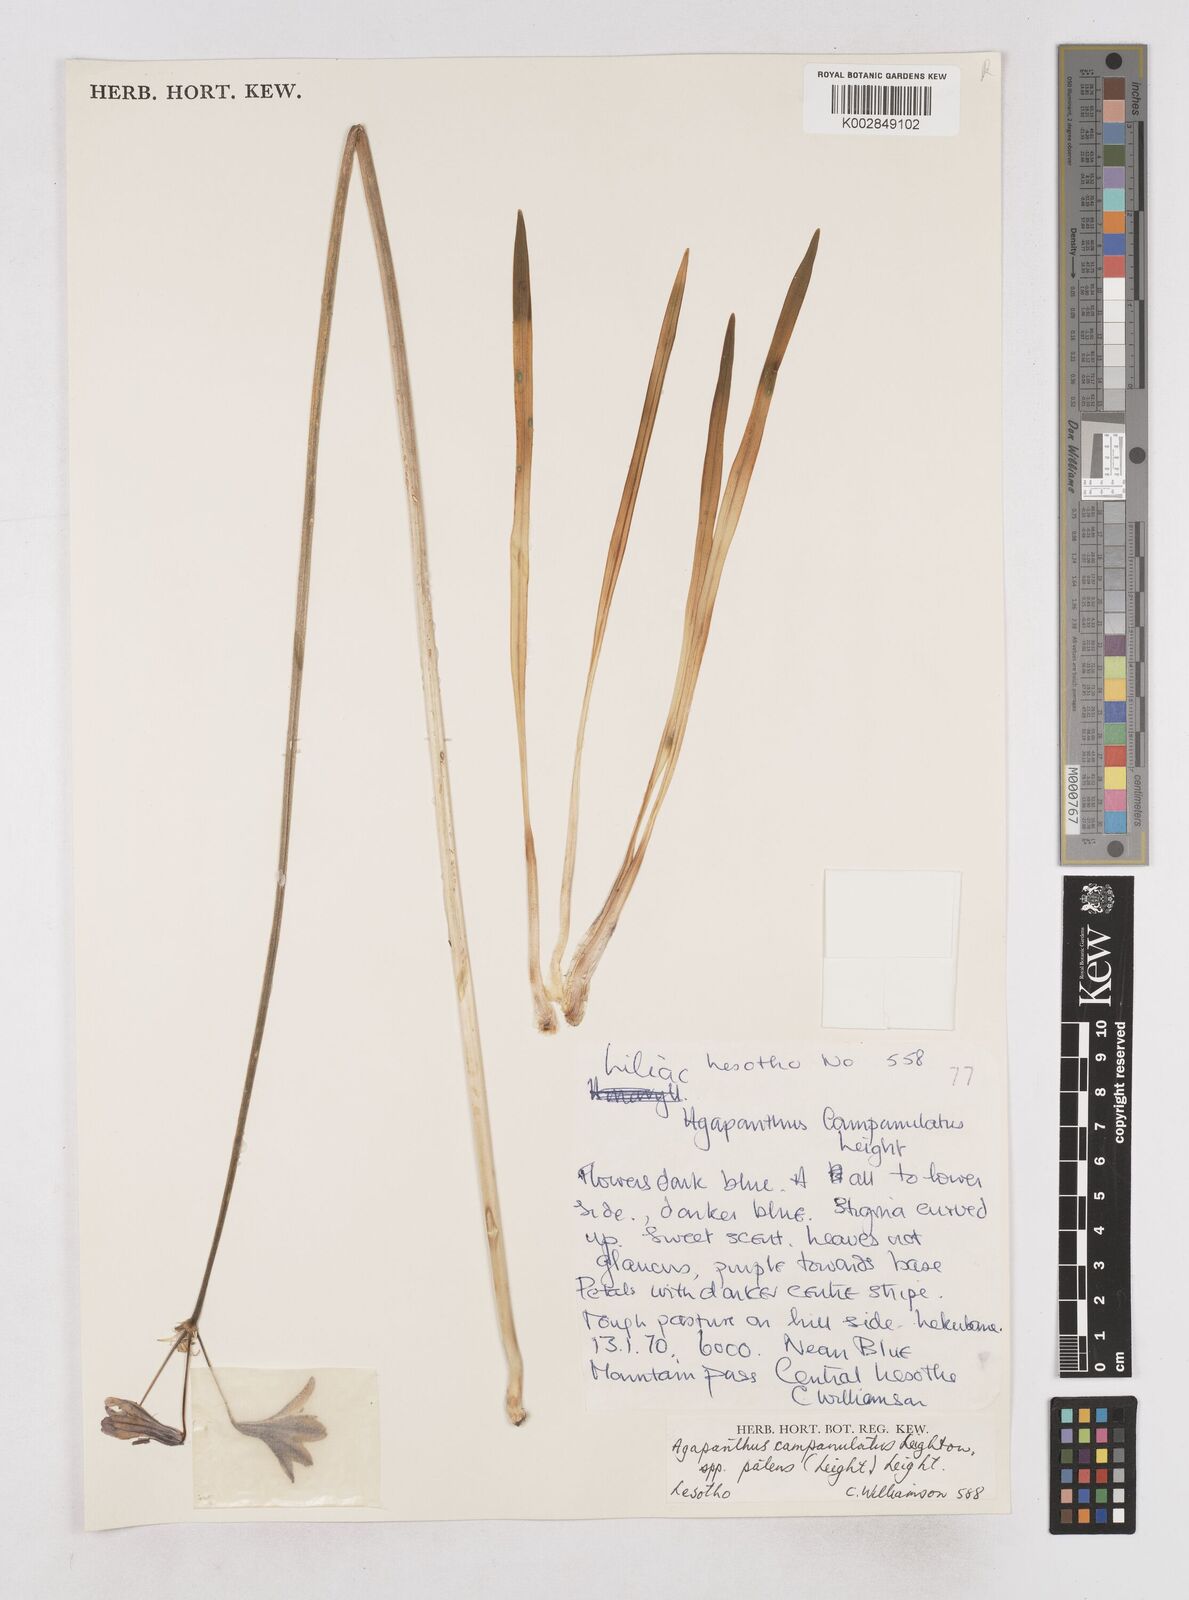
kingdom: Plantae
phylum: Tracheophyta
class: Liliopsida
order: Asparagales
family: Amaryllidaceae
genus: Agapanthus
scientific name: Agapanthus campanulatus
